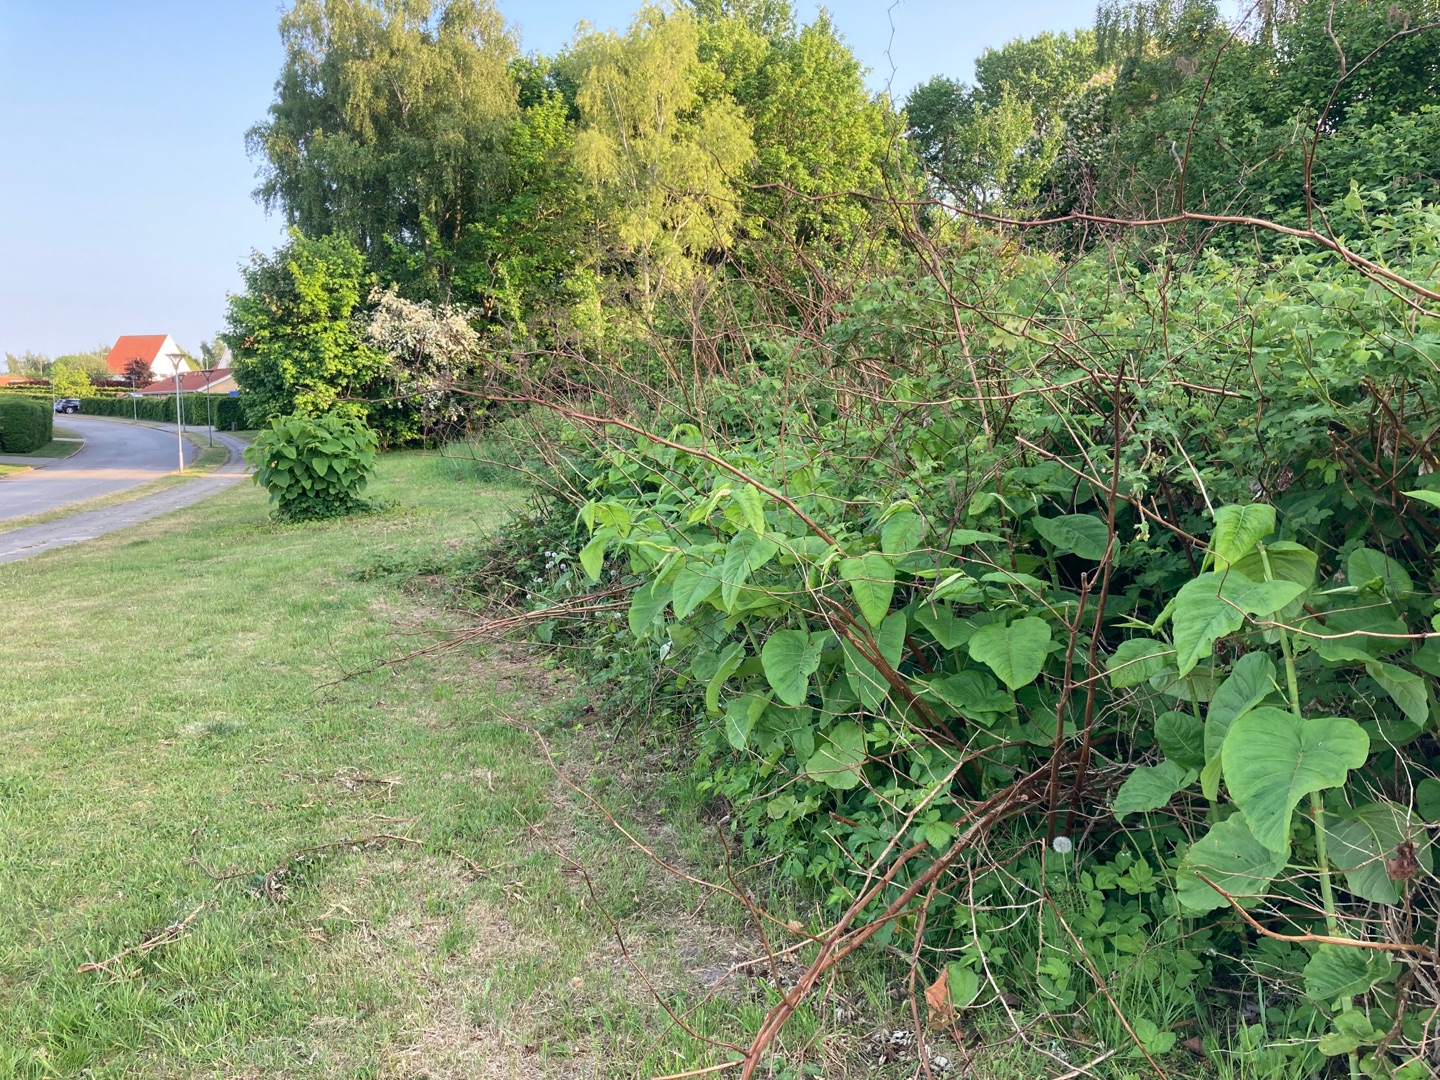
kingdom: Plantae
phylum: Tracheophyta
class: Magnoliopsida
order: Caryophyllales
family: Polygonaceae
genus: Reynoutria
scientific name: Reynoutria sachalinensis
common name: Kæmpe-pileurt
